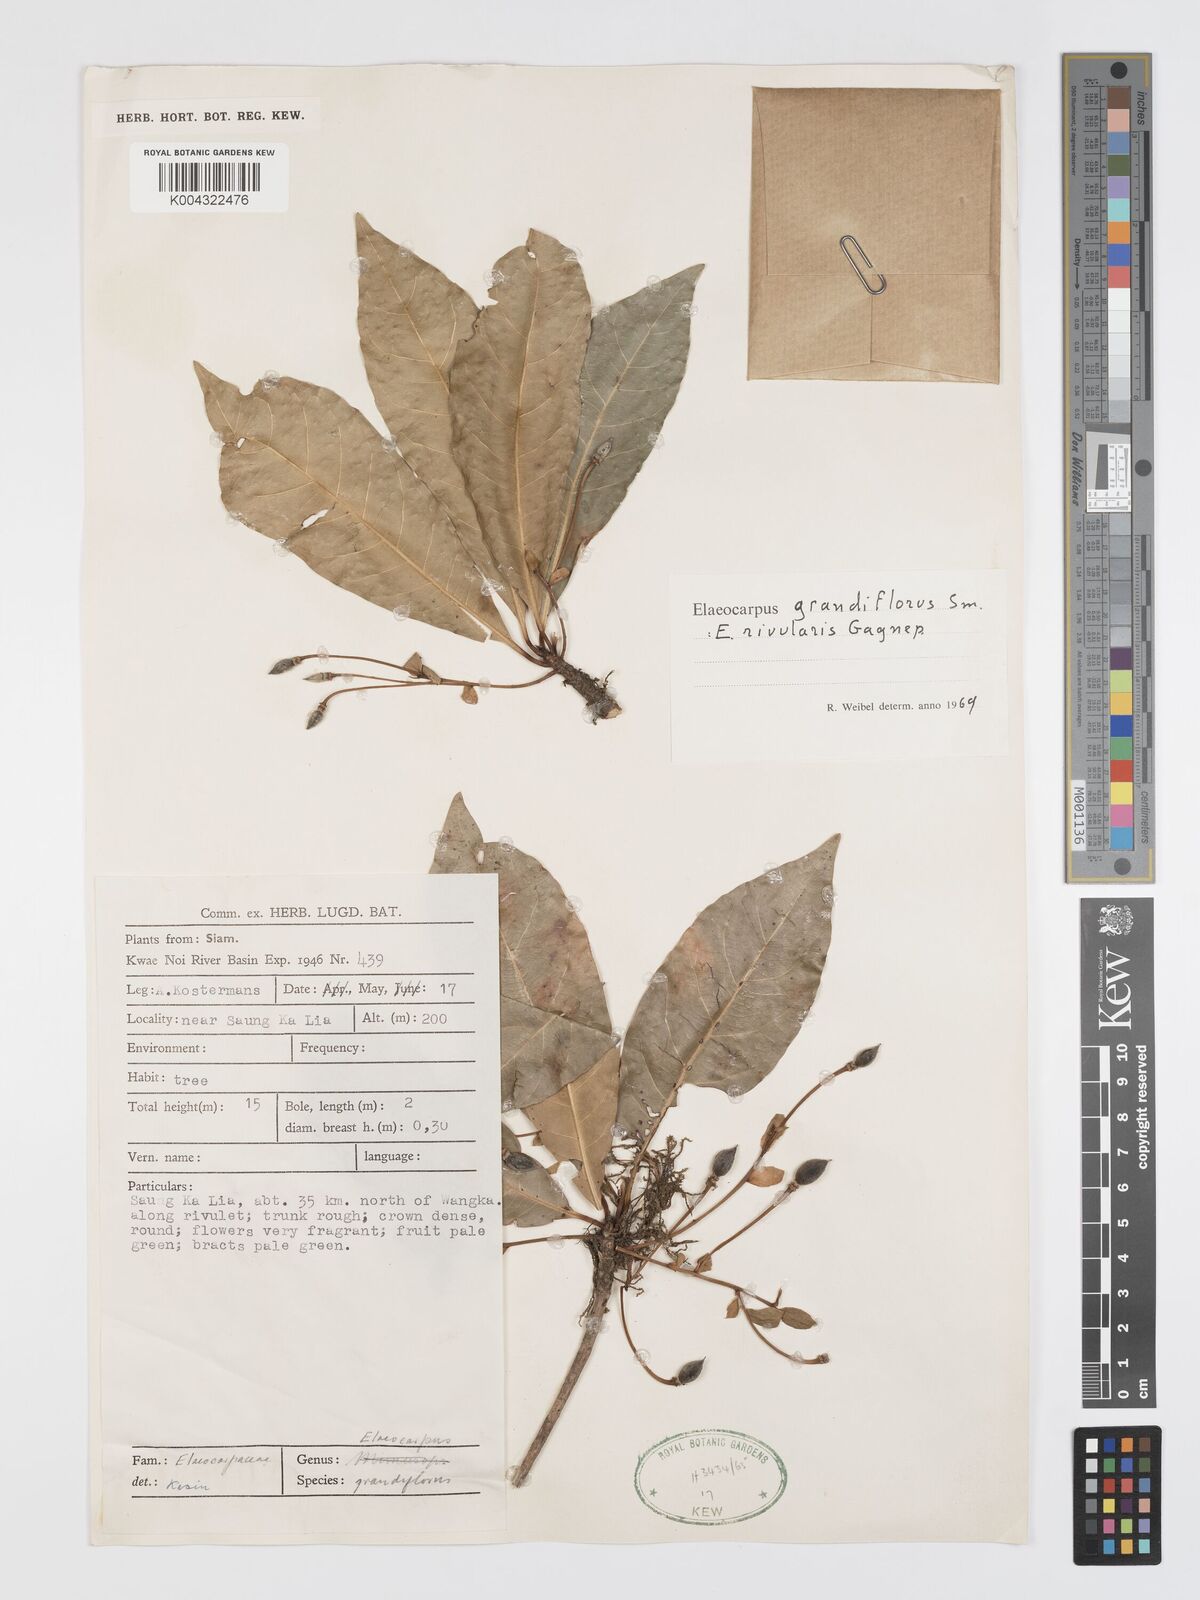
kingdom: Plantae
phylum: Tracheophyta
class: Magnoliopsida
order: Oxalidales
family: Elaeocarpaceae
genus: Elaeocarpus
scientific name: Elaeocarpus grandiflorus
